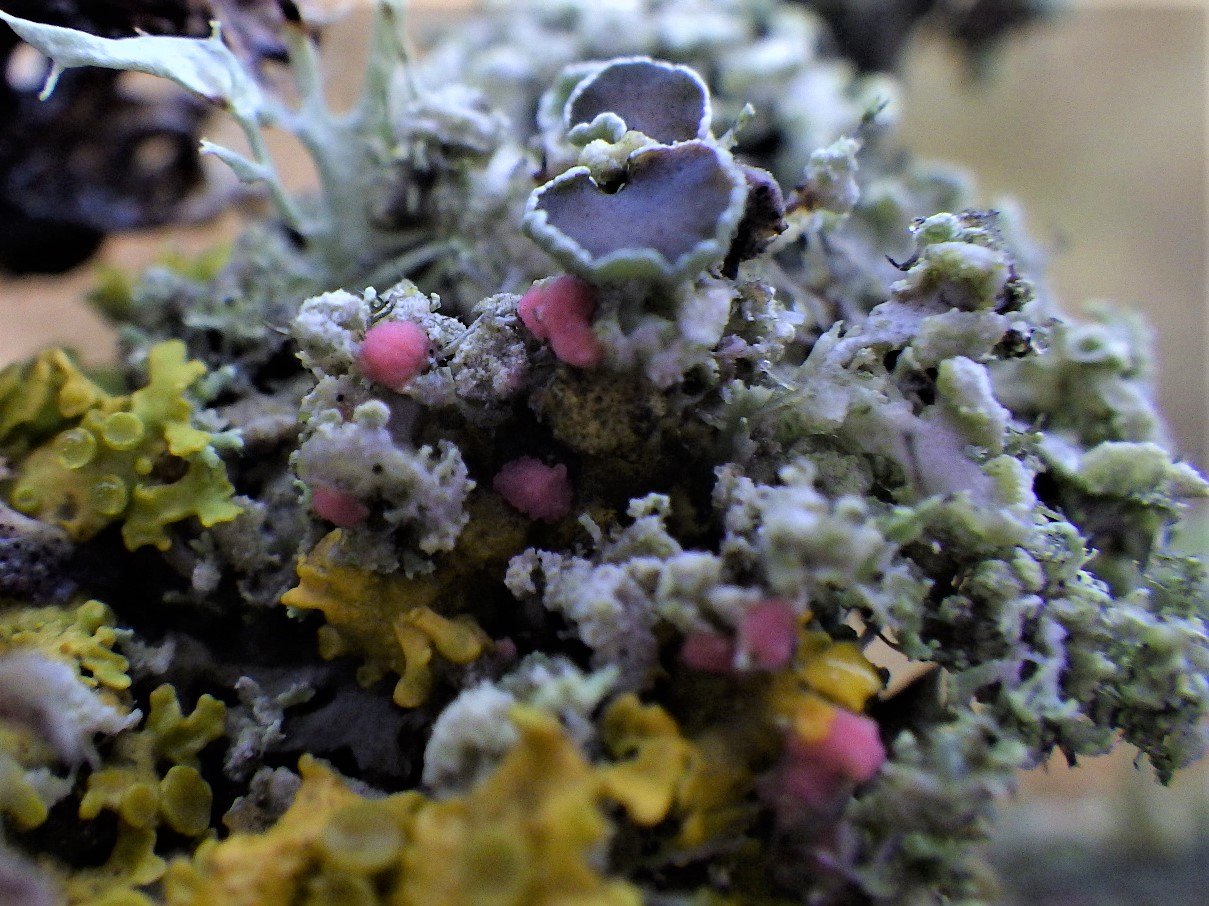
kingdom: Fungi
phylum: Ascomycota
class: Sordariomycetes
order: Hypocreales
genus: Illosporiopsis
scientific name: Illosporiopsis christiansenii
